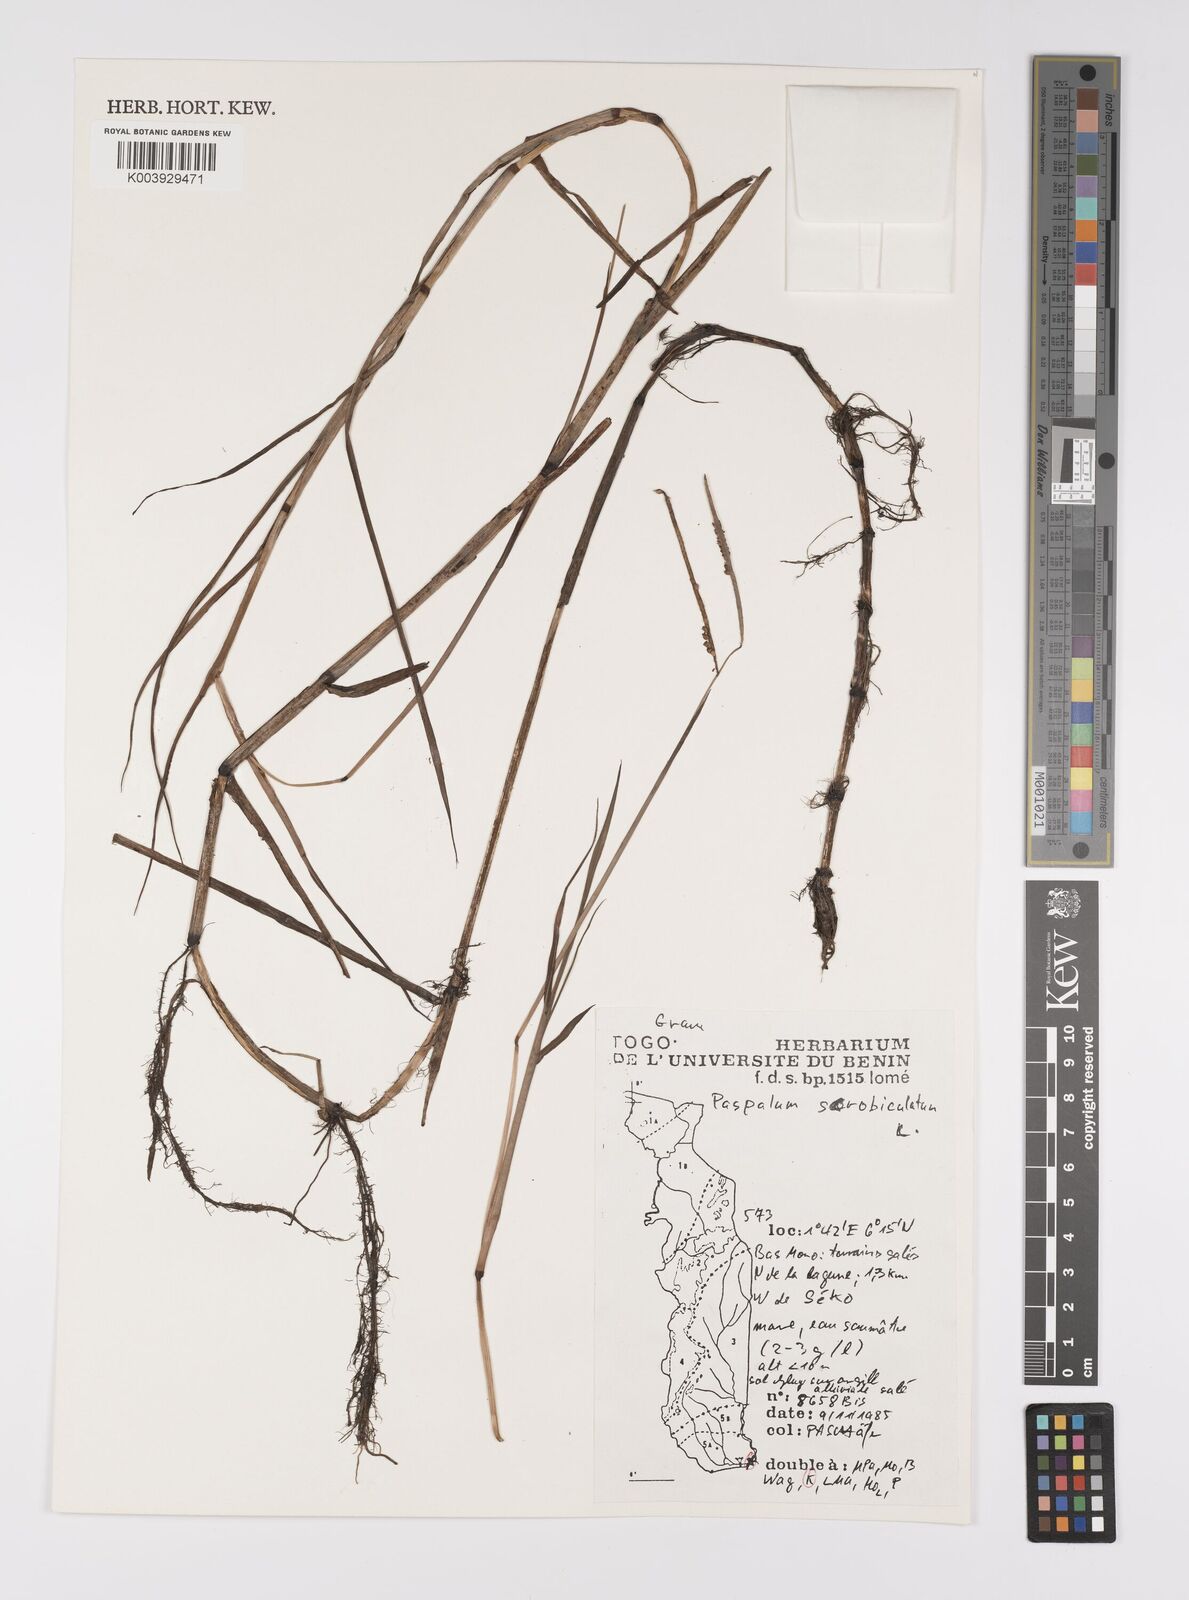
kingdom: Plantae
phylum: Tracheophyta
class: Liliopsida
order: Poales
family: Poaceae
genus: Paspalum
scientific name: Paspalum scrobiculatum
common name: Kodo millet
